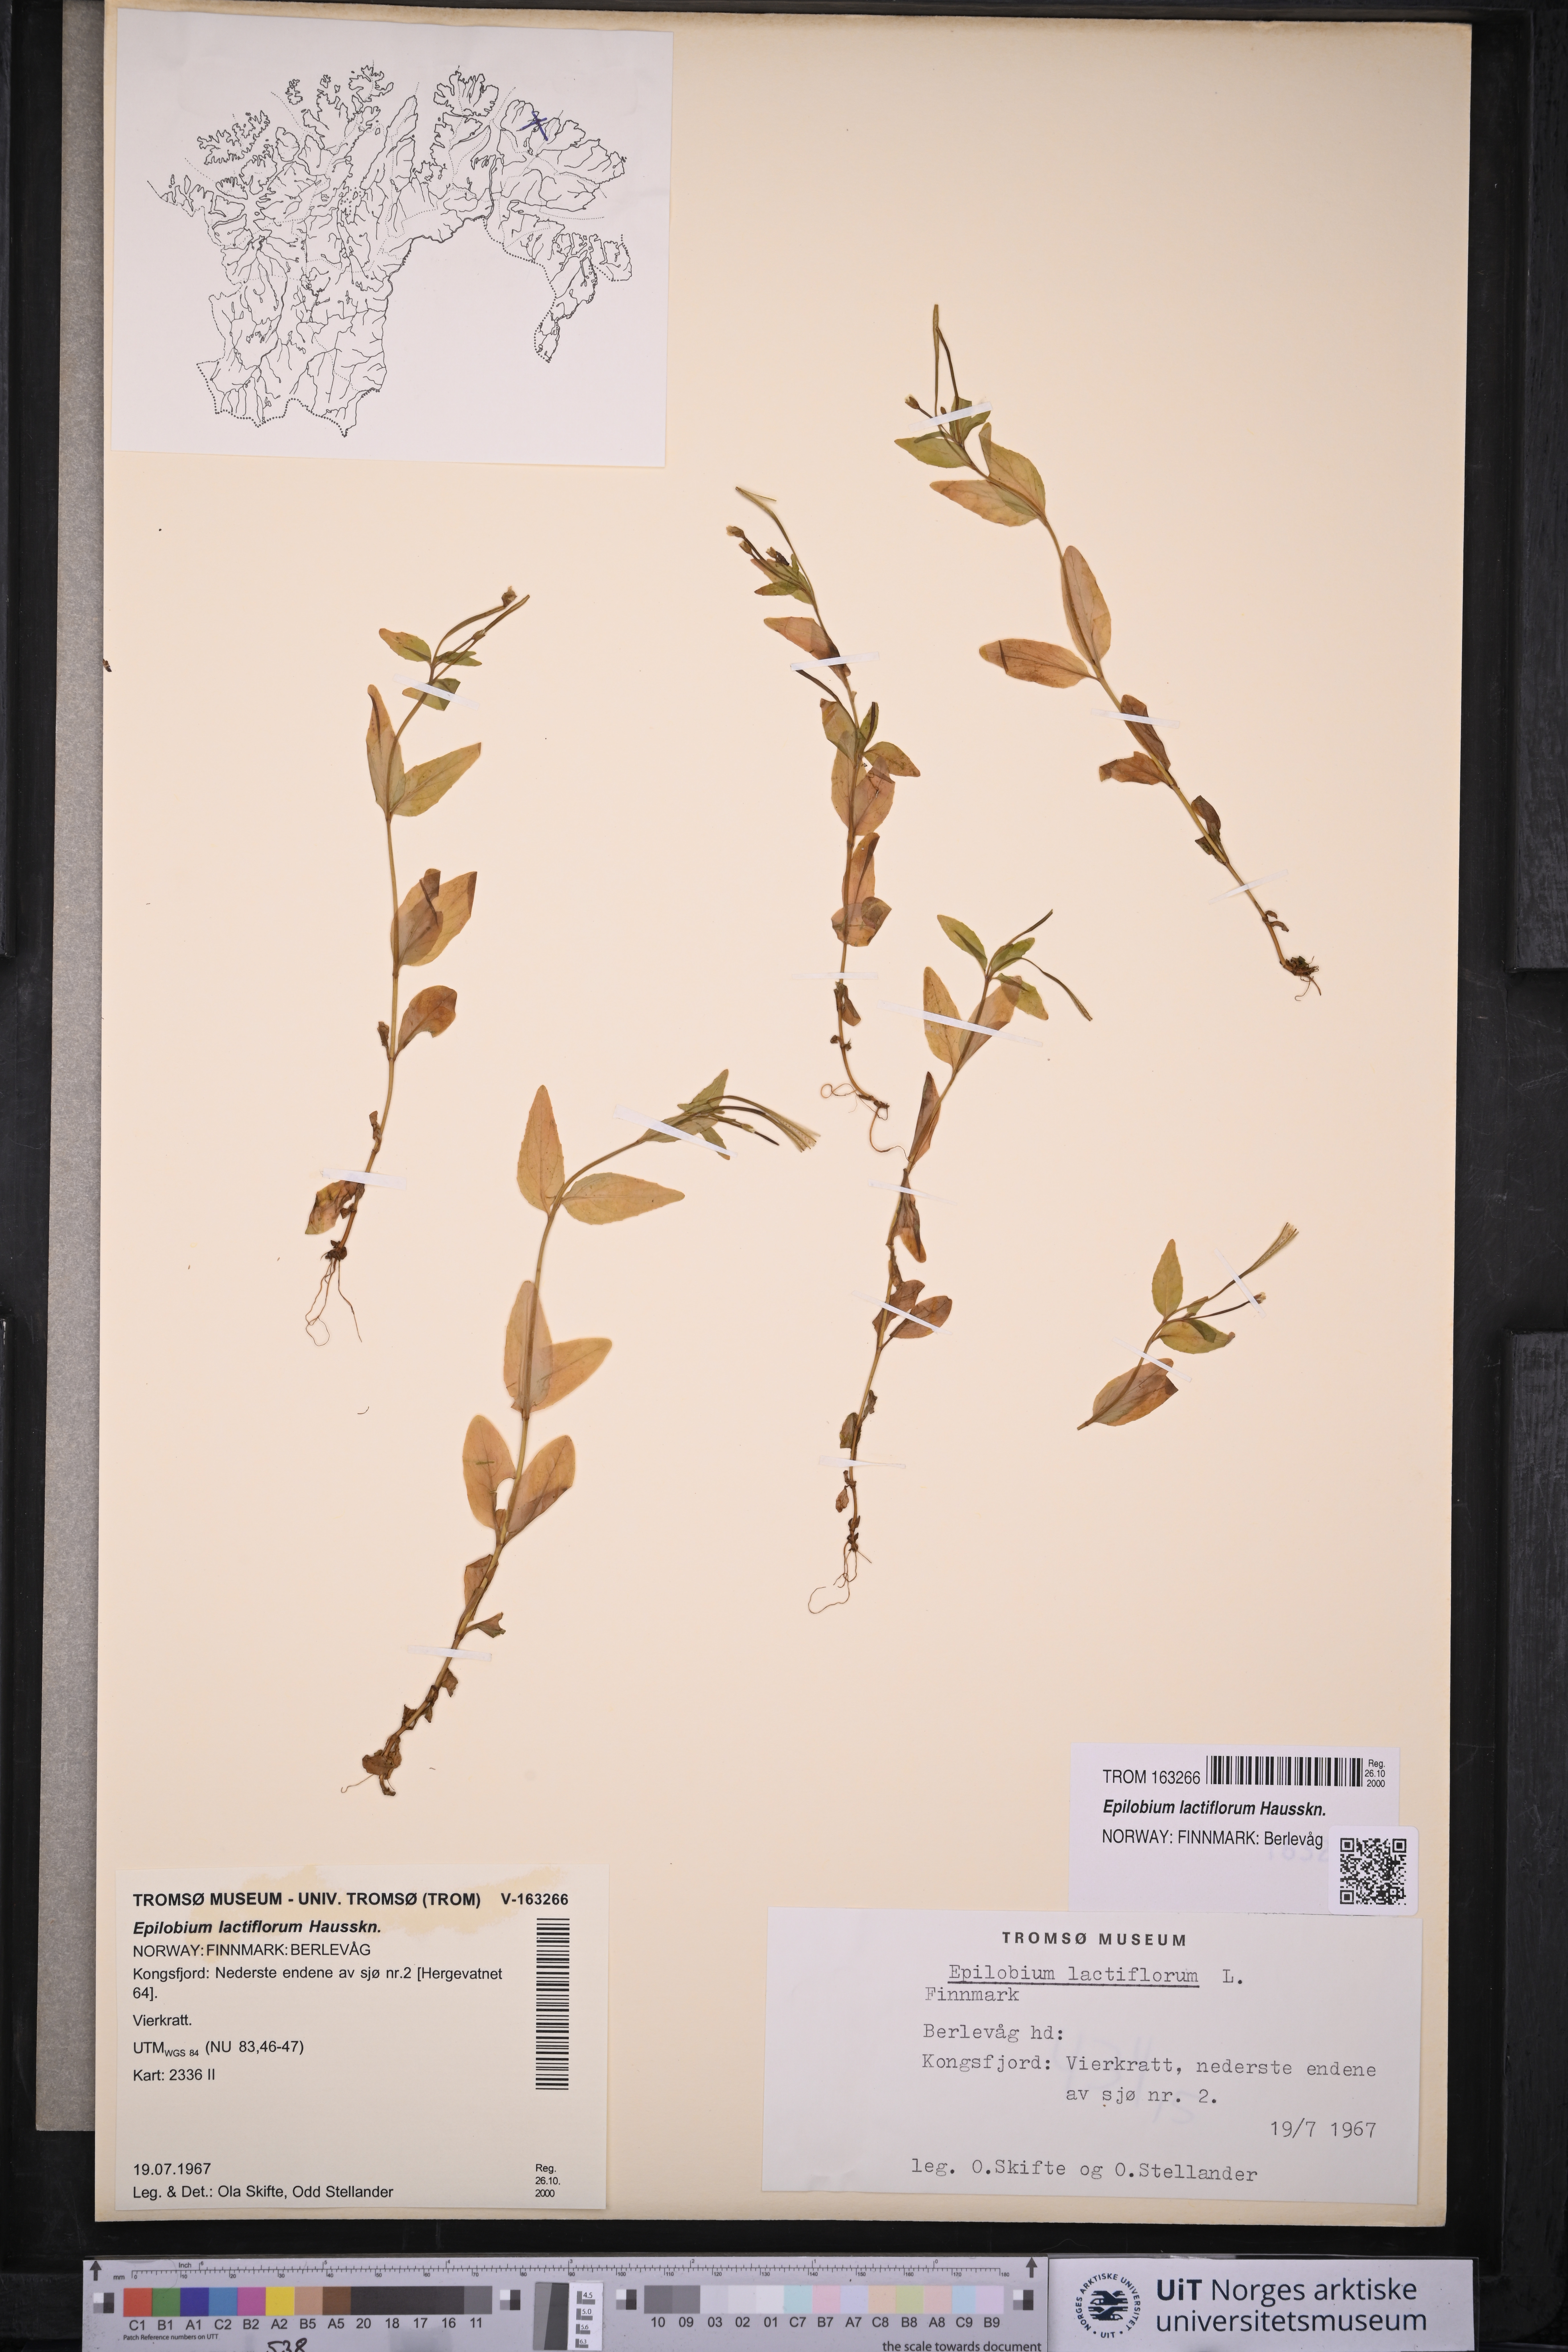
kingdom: Plantae
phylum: Tracheophyta
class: Magnoliopsida
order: Myrtales
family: Onagraceae
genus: Epilobium
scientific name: Epilobium lactiflorum
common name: Milkflower willowherb
